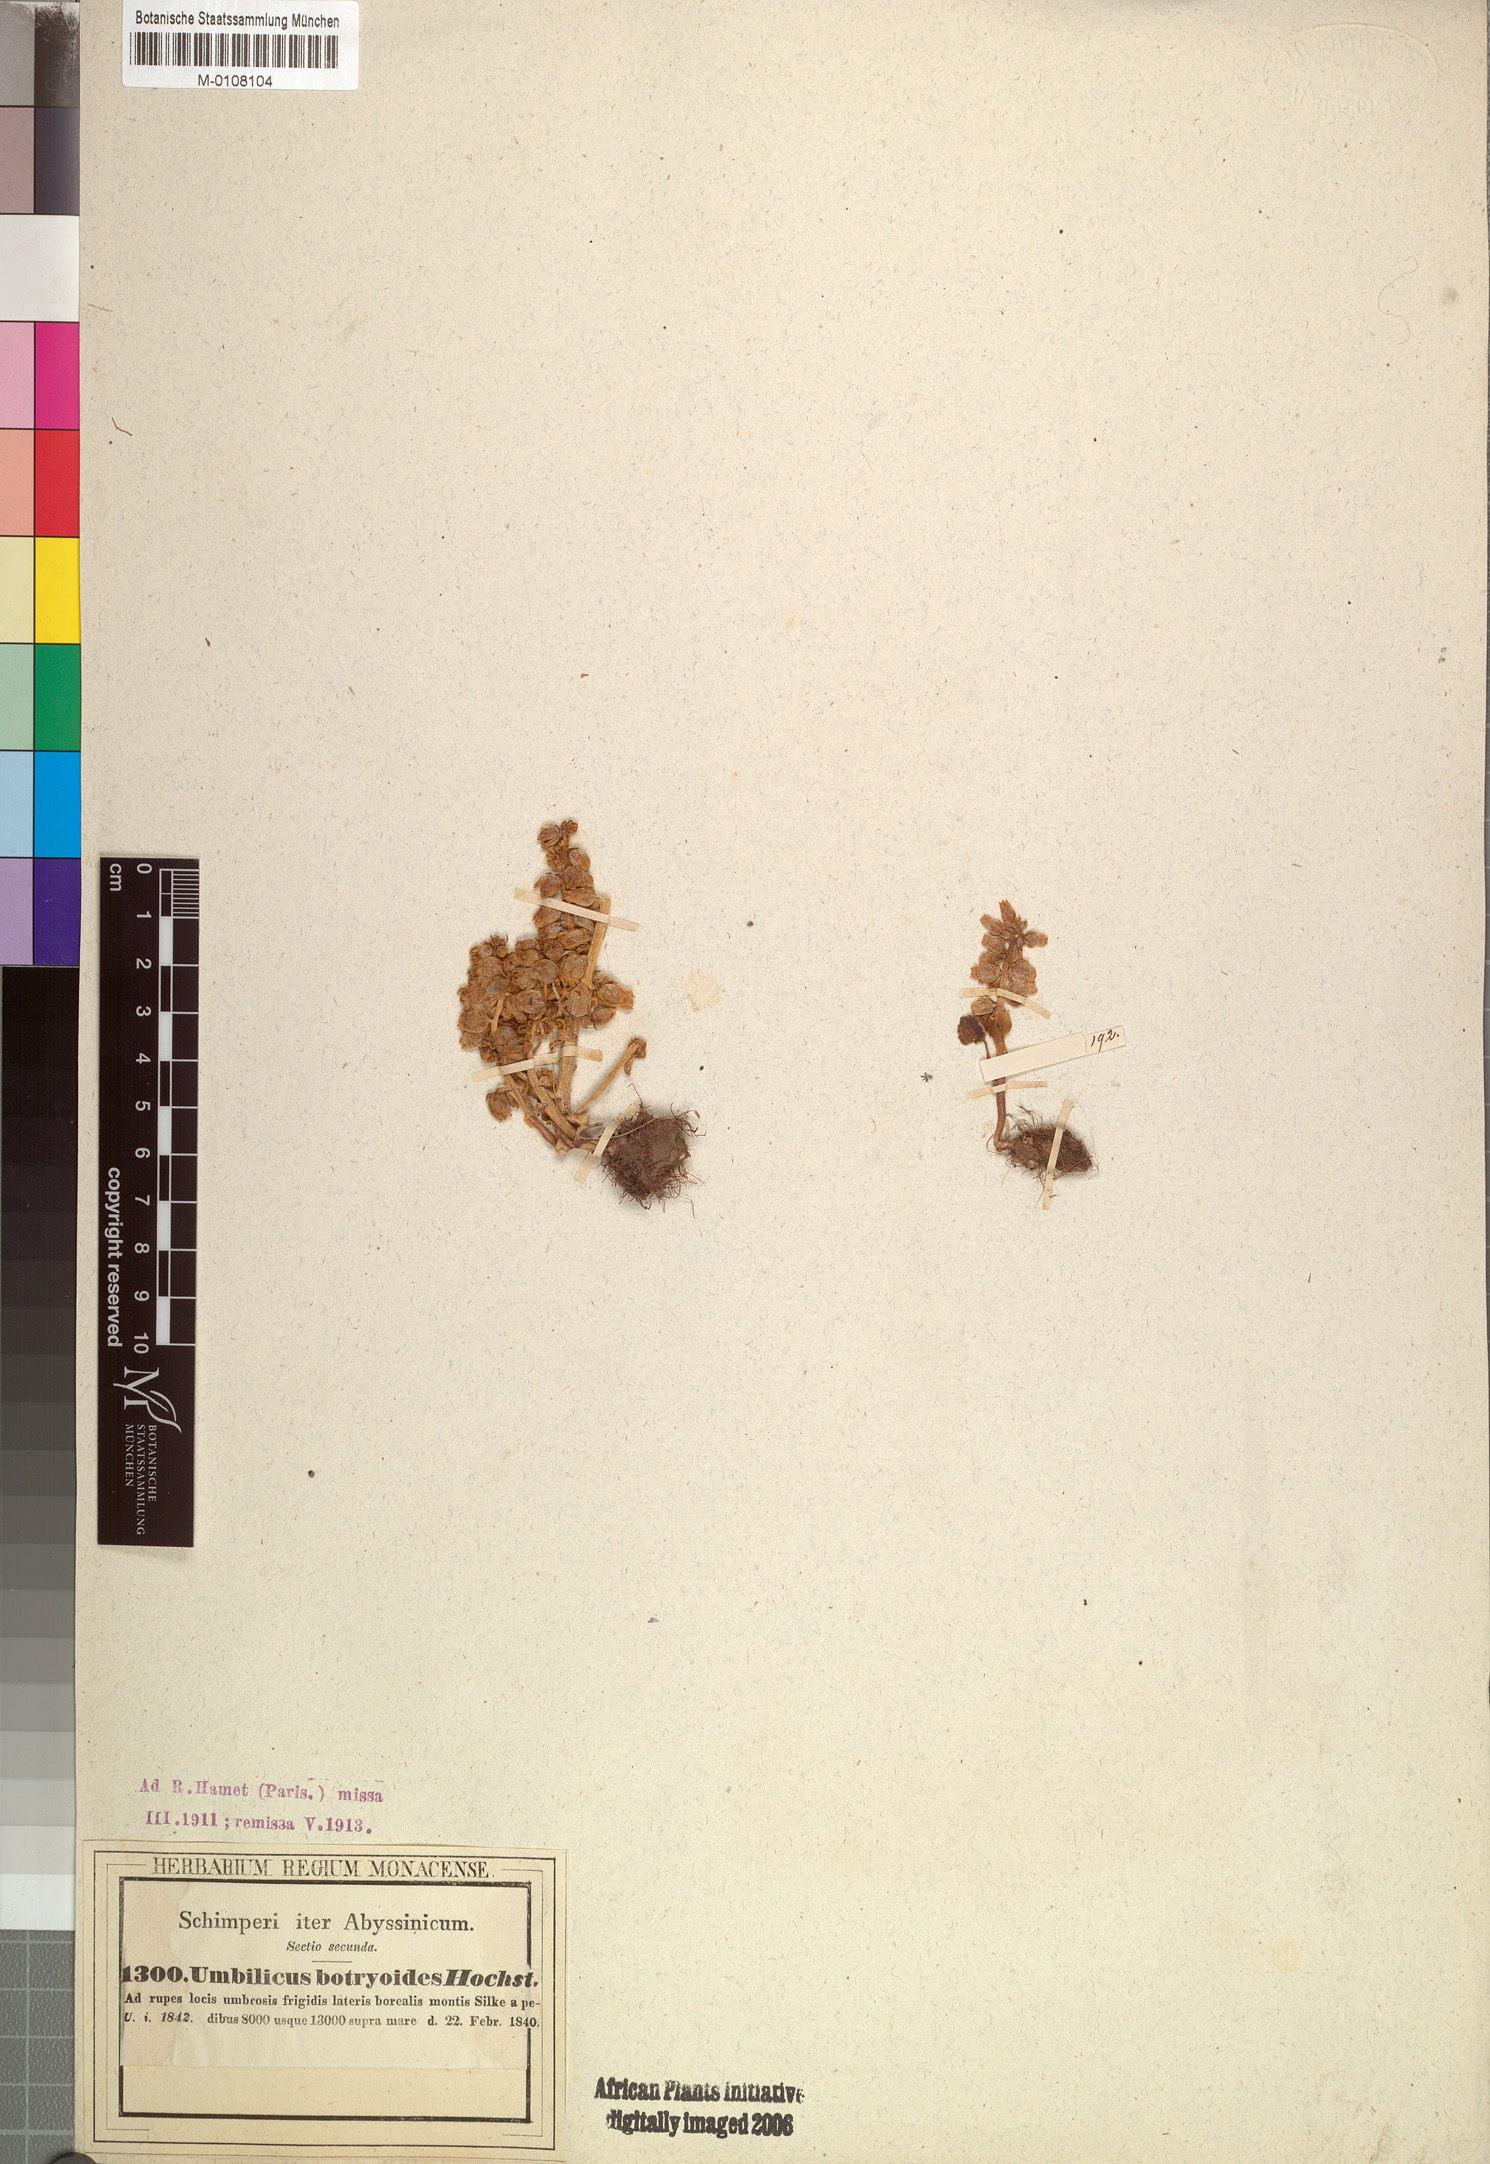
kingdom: Plantae
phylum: Tracheophyta
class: Magnoliopsida
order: Saxifragales
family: Crassulaceae
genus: Umbilicus
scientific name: Umbilicus botryoides
